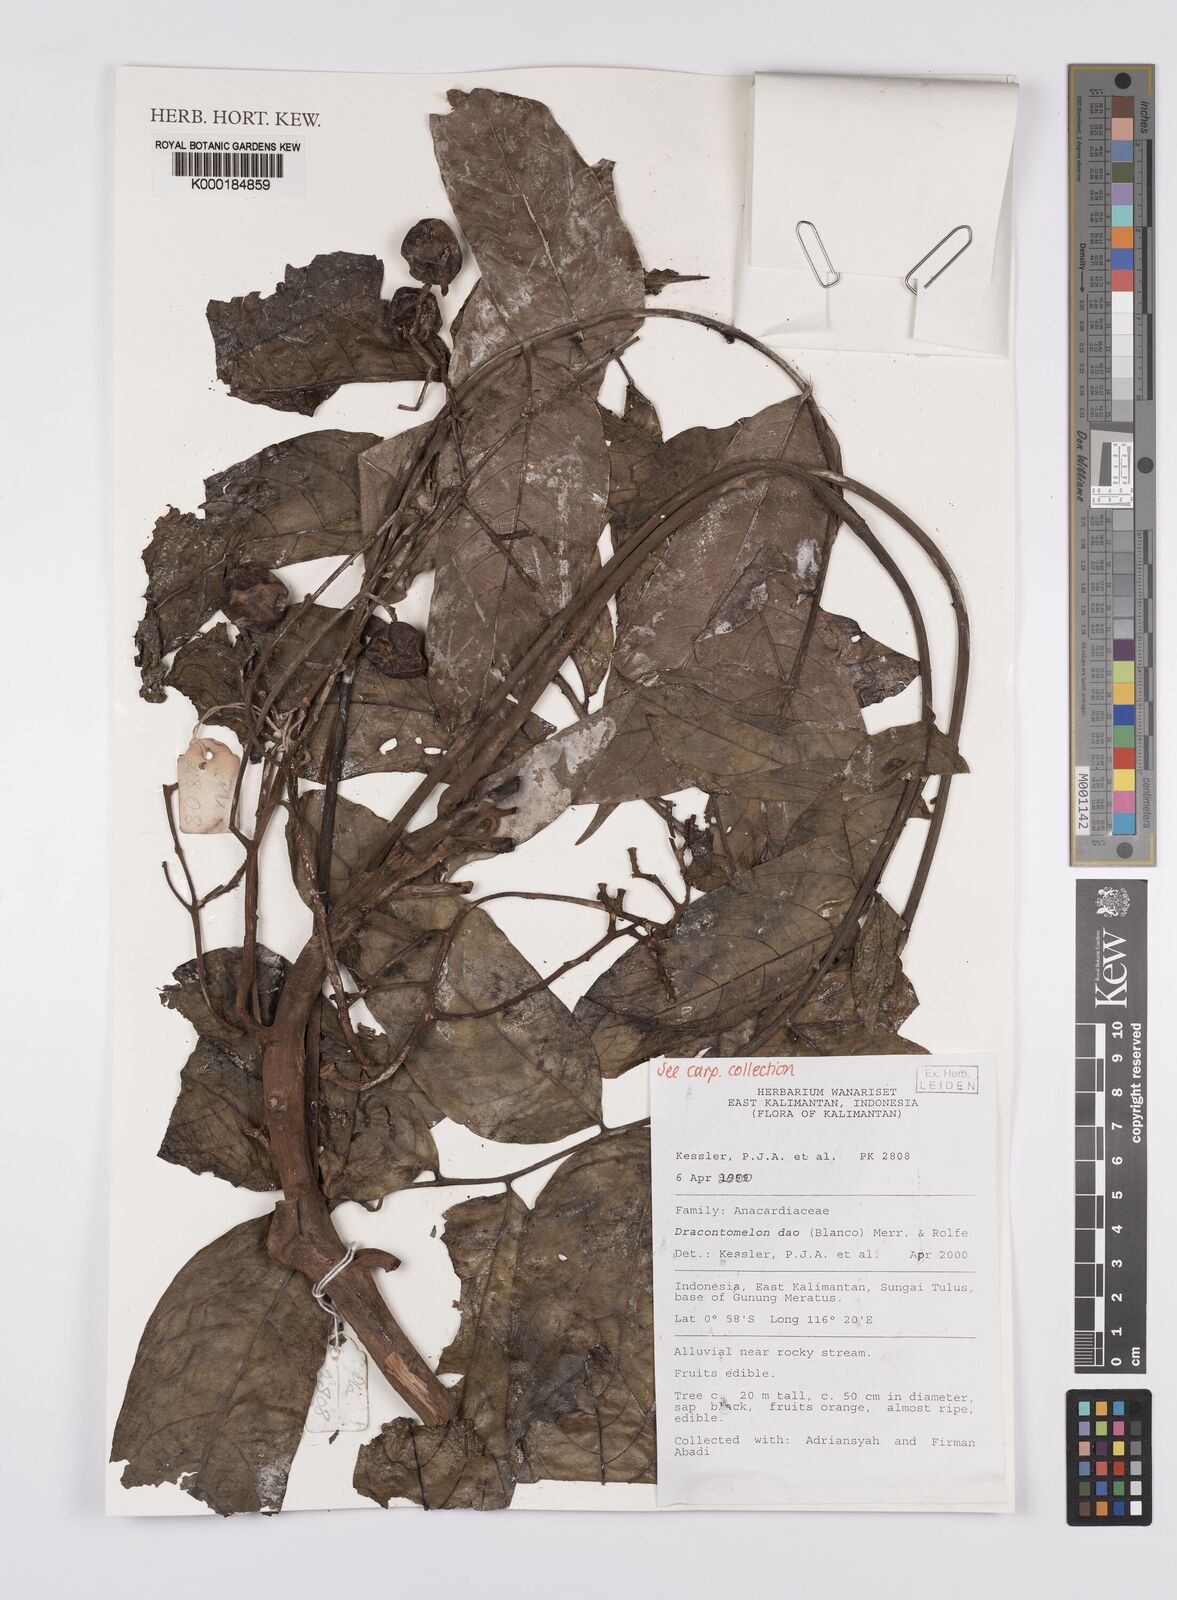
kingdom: Plantae
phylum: Tracheophyta
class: Magnoliopsida
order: Sapindales
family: Anacardiaceae
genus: Dracontomelon
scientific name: Dracontomelon dao
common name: Argus pheasant-tree
